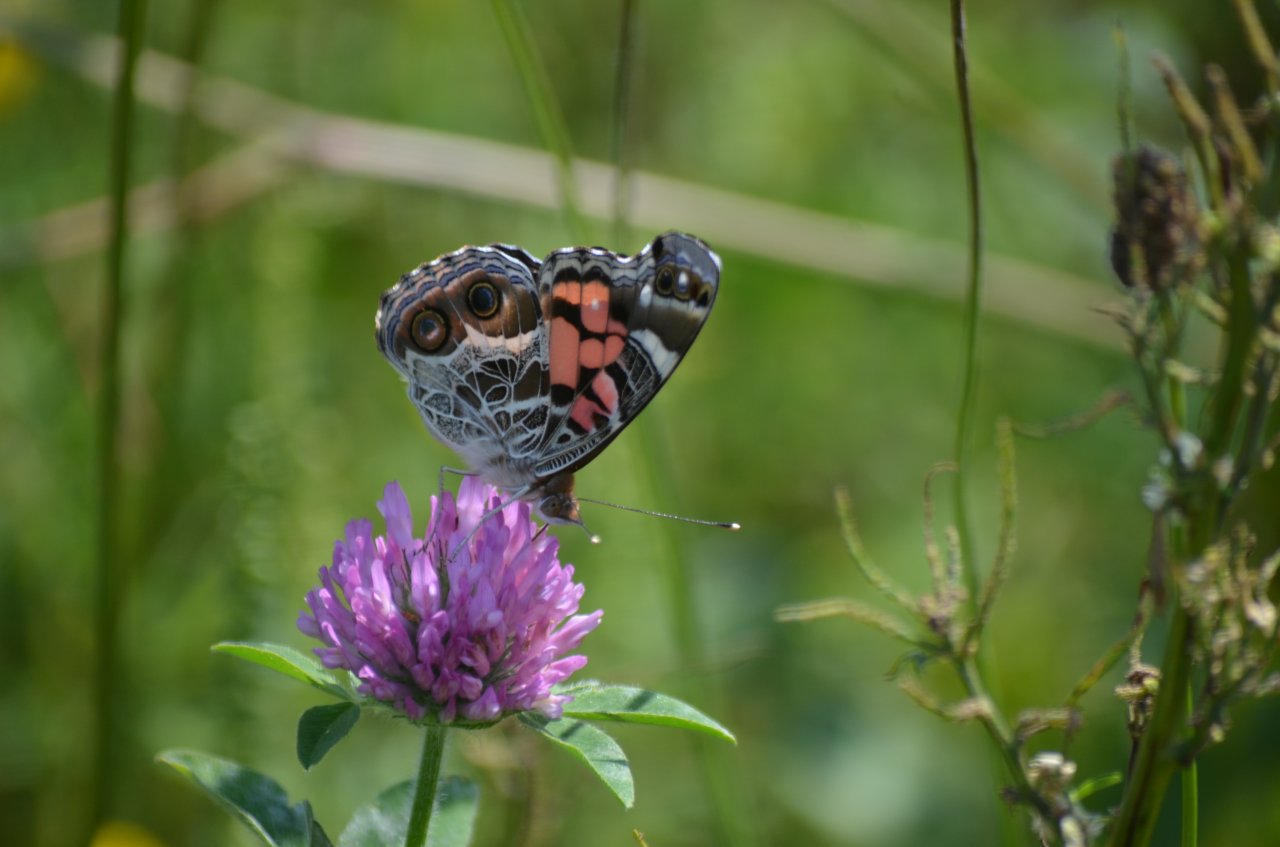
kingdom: Animalia
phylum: Arthropoda
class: Insecta
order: Lepidoptera
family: Nymphalidae
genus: Vanessa
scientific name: Vanessa virginiensis
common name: American Lady
